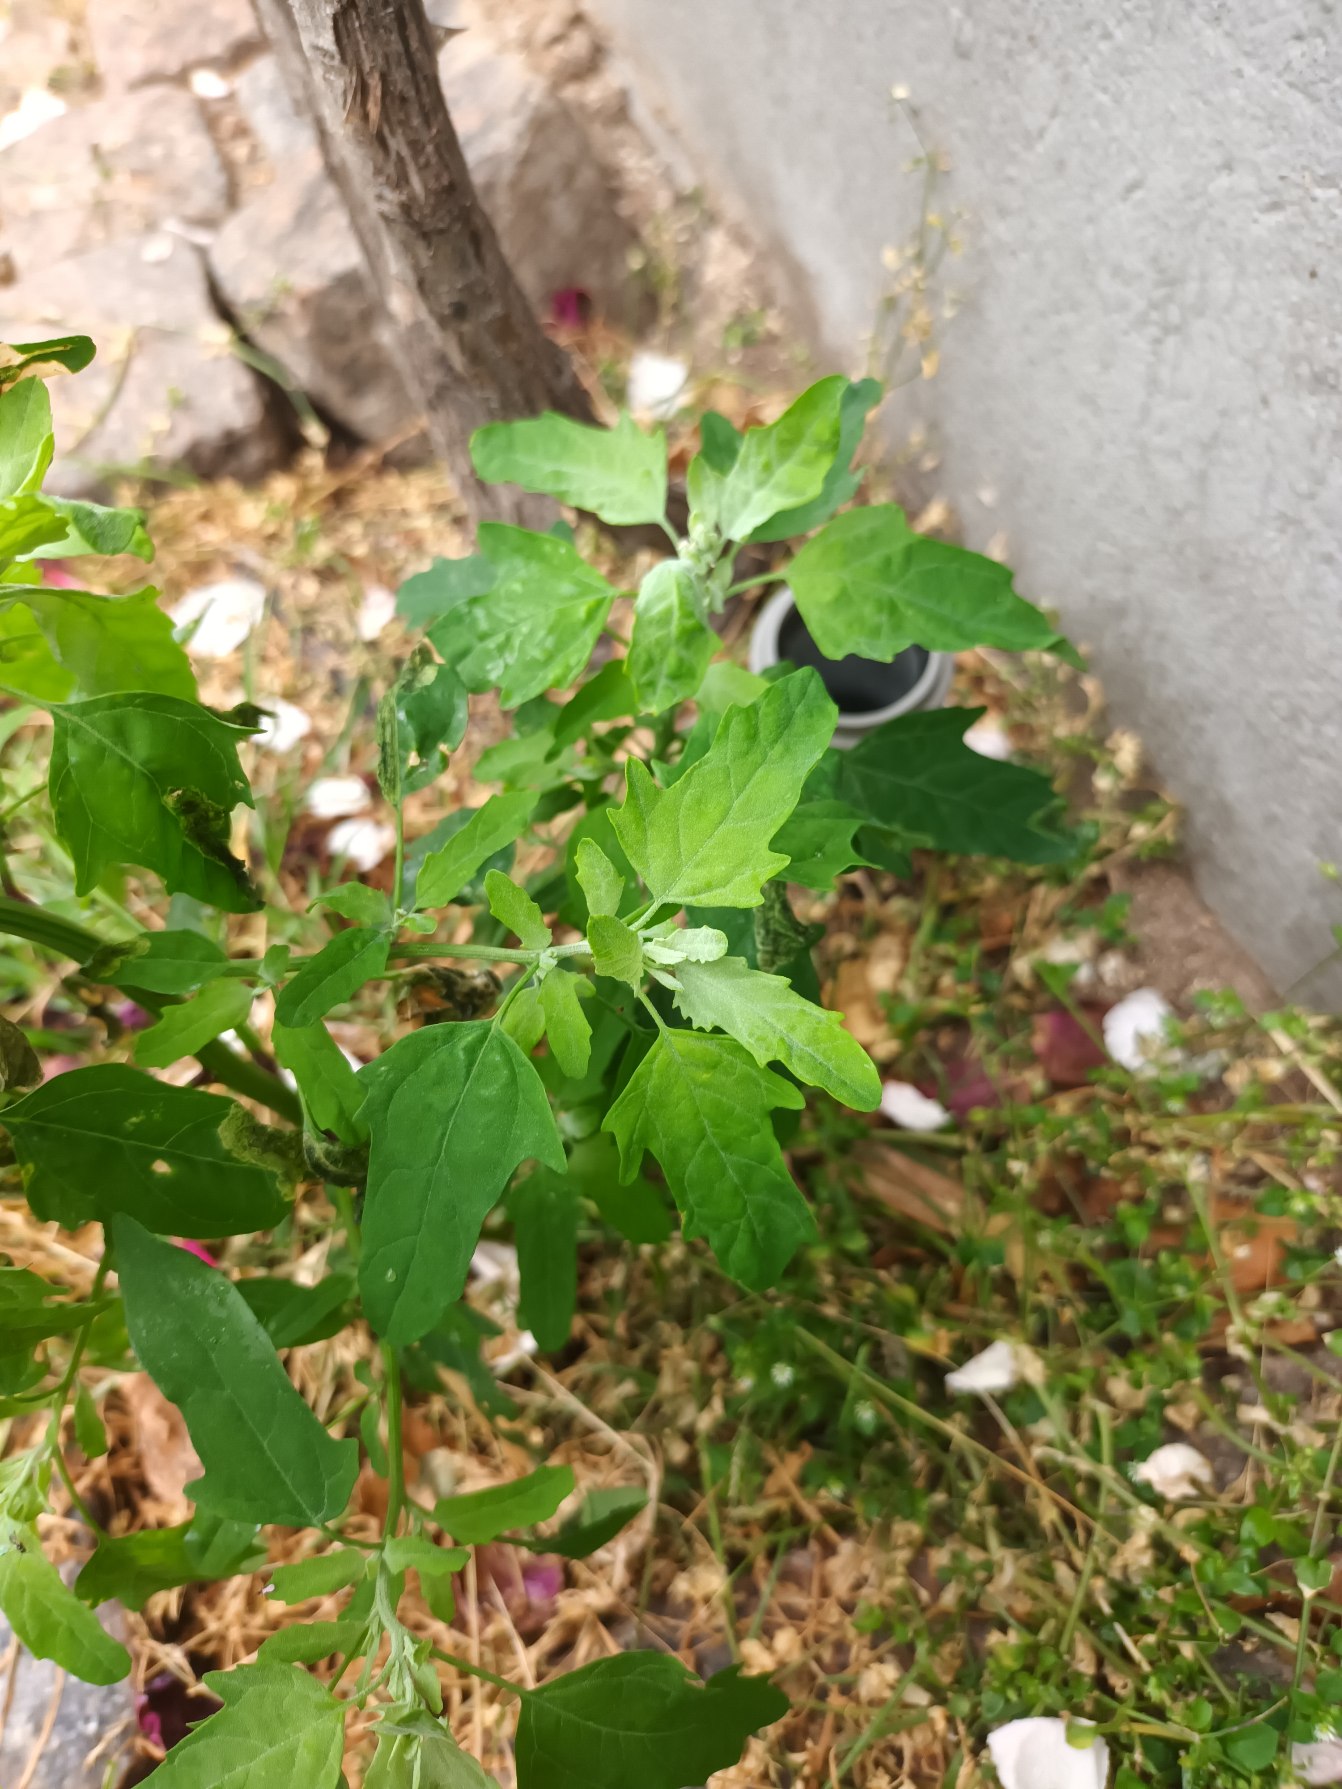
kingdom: Plantae
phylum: Tracheophyta
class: Magnoliopsida
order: Caryophyllales
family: Amaranthaceae
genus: Chenopodium
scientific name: Chenopodium ficifolium
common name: Figenbladet gåsefod
